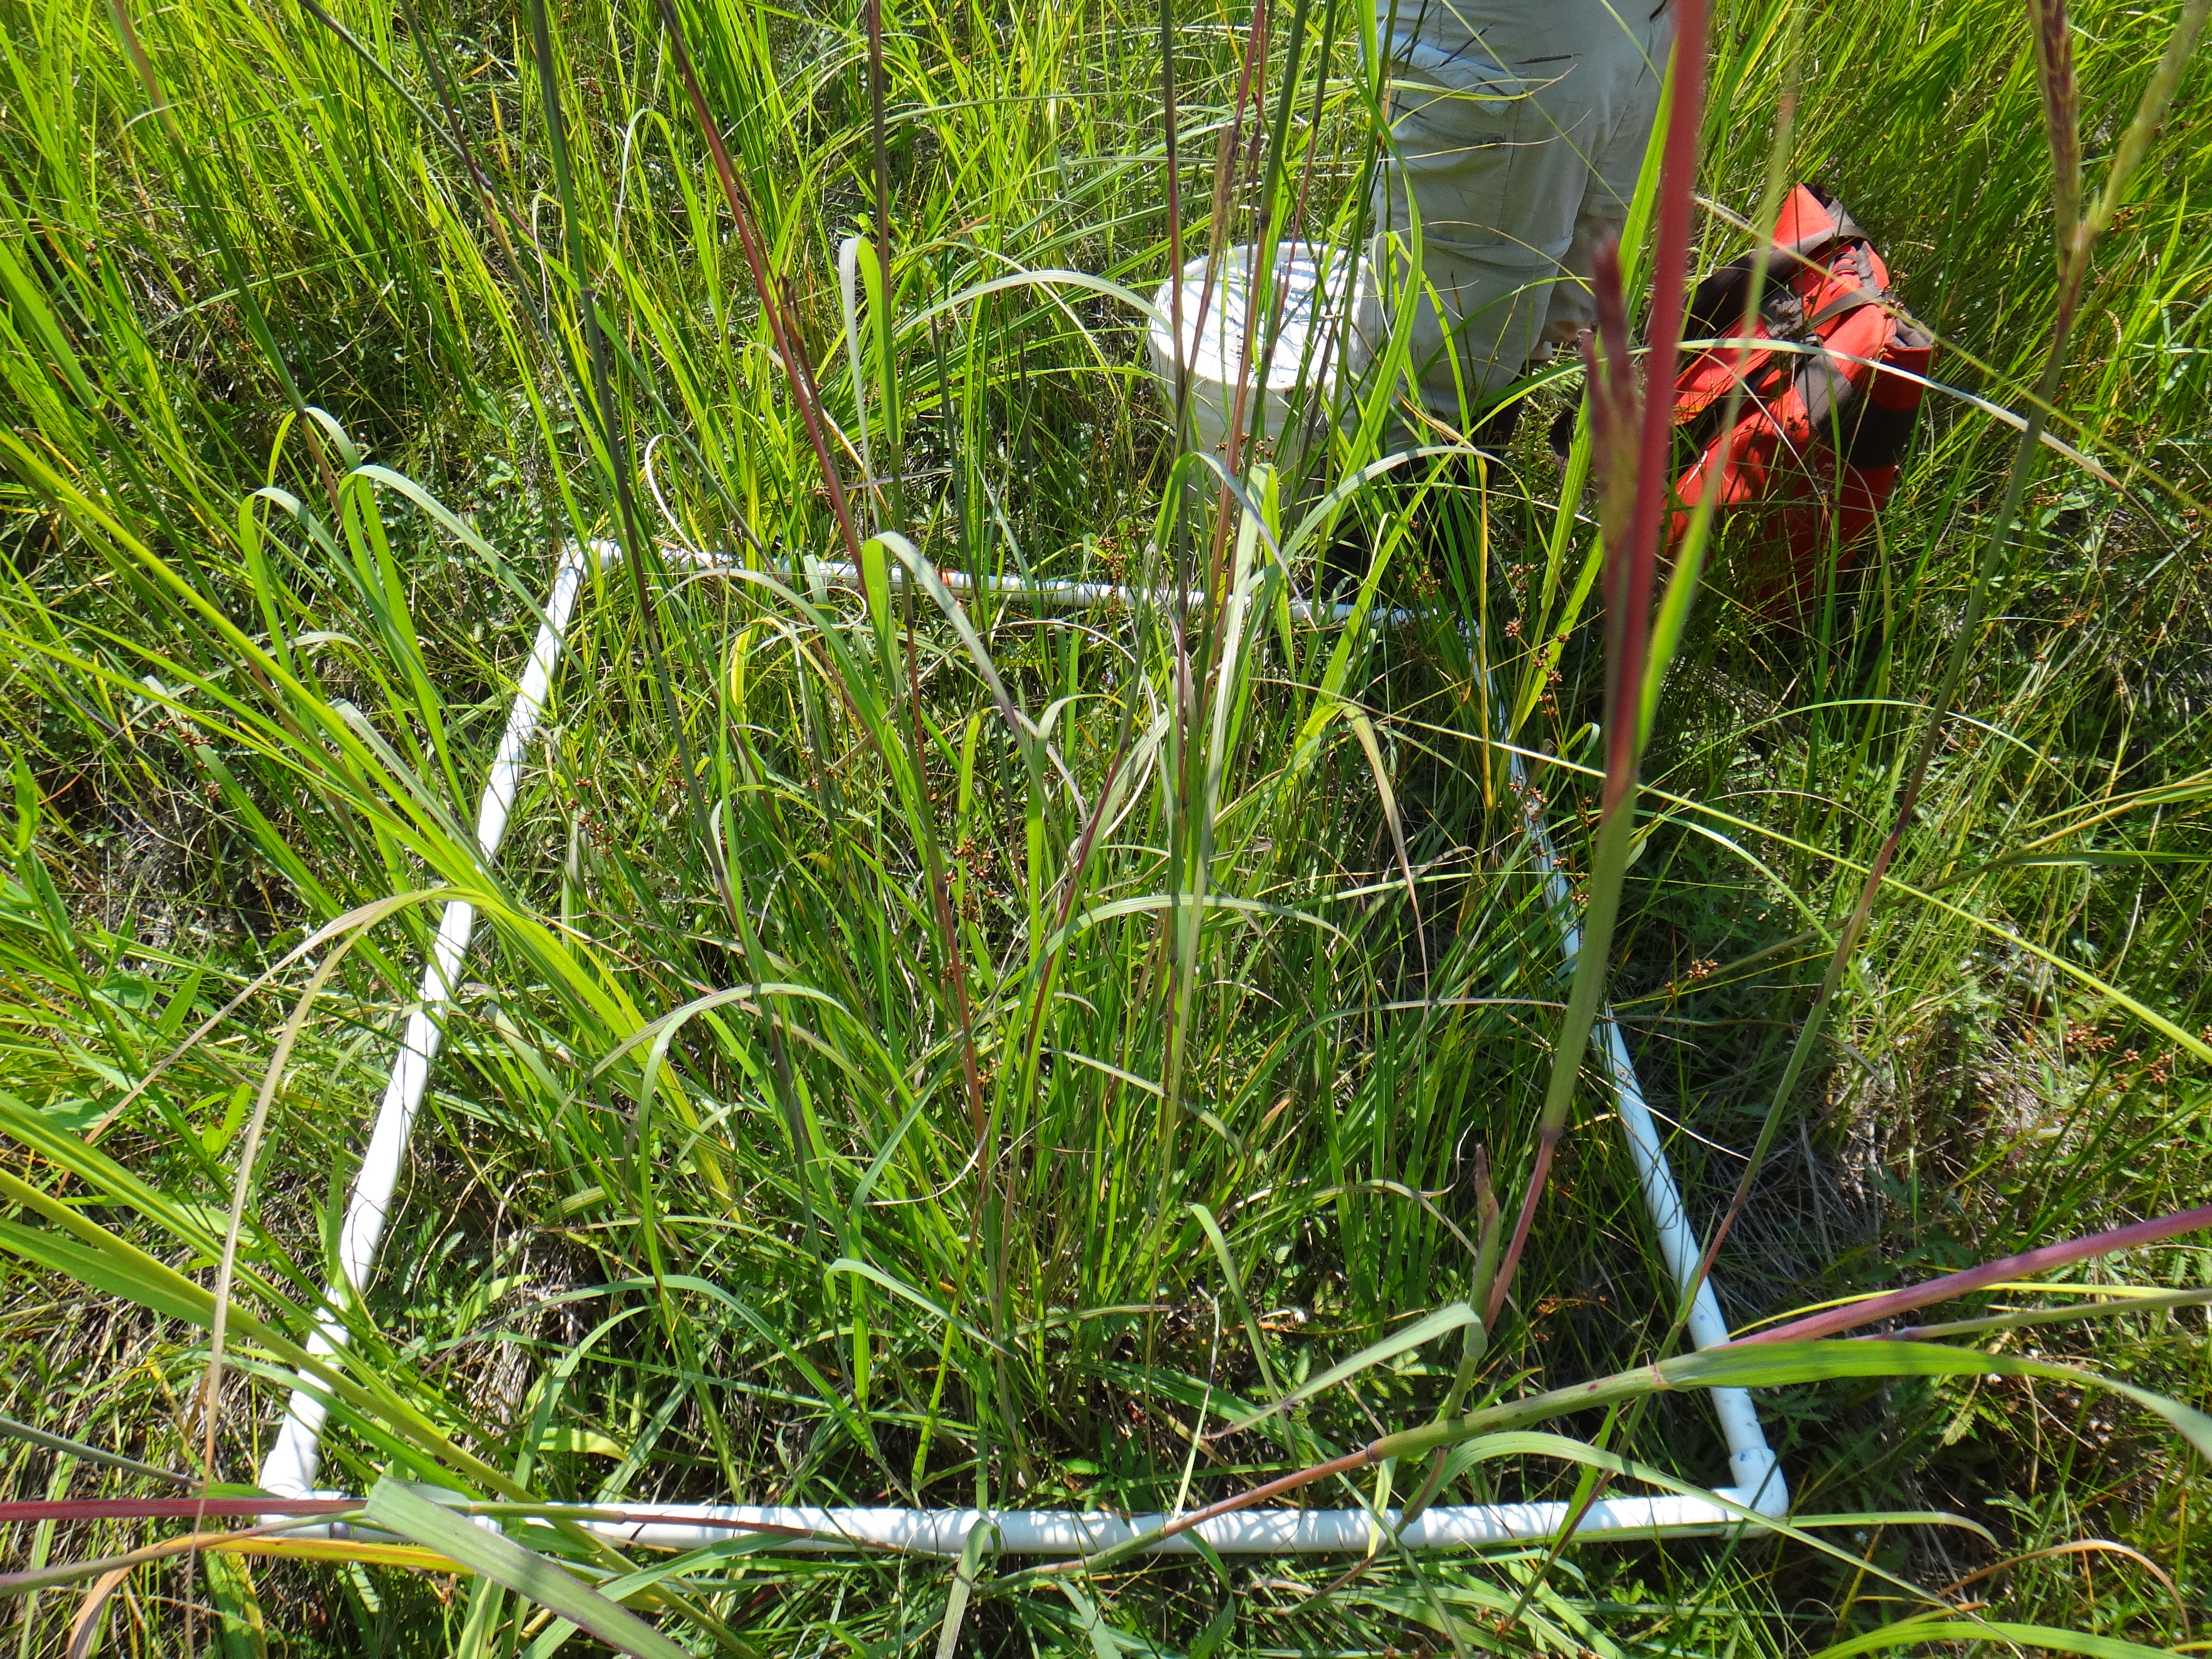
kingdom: Plantae
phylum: Tracheophyta
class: Liliopsida
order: Asparagales
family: Iridaceae
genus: Iris
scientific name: Iris virginica
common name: Southern blue flag
